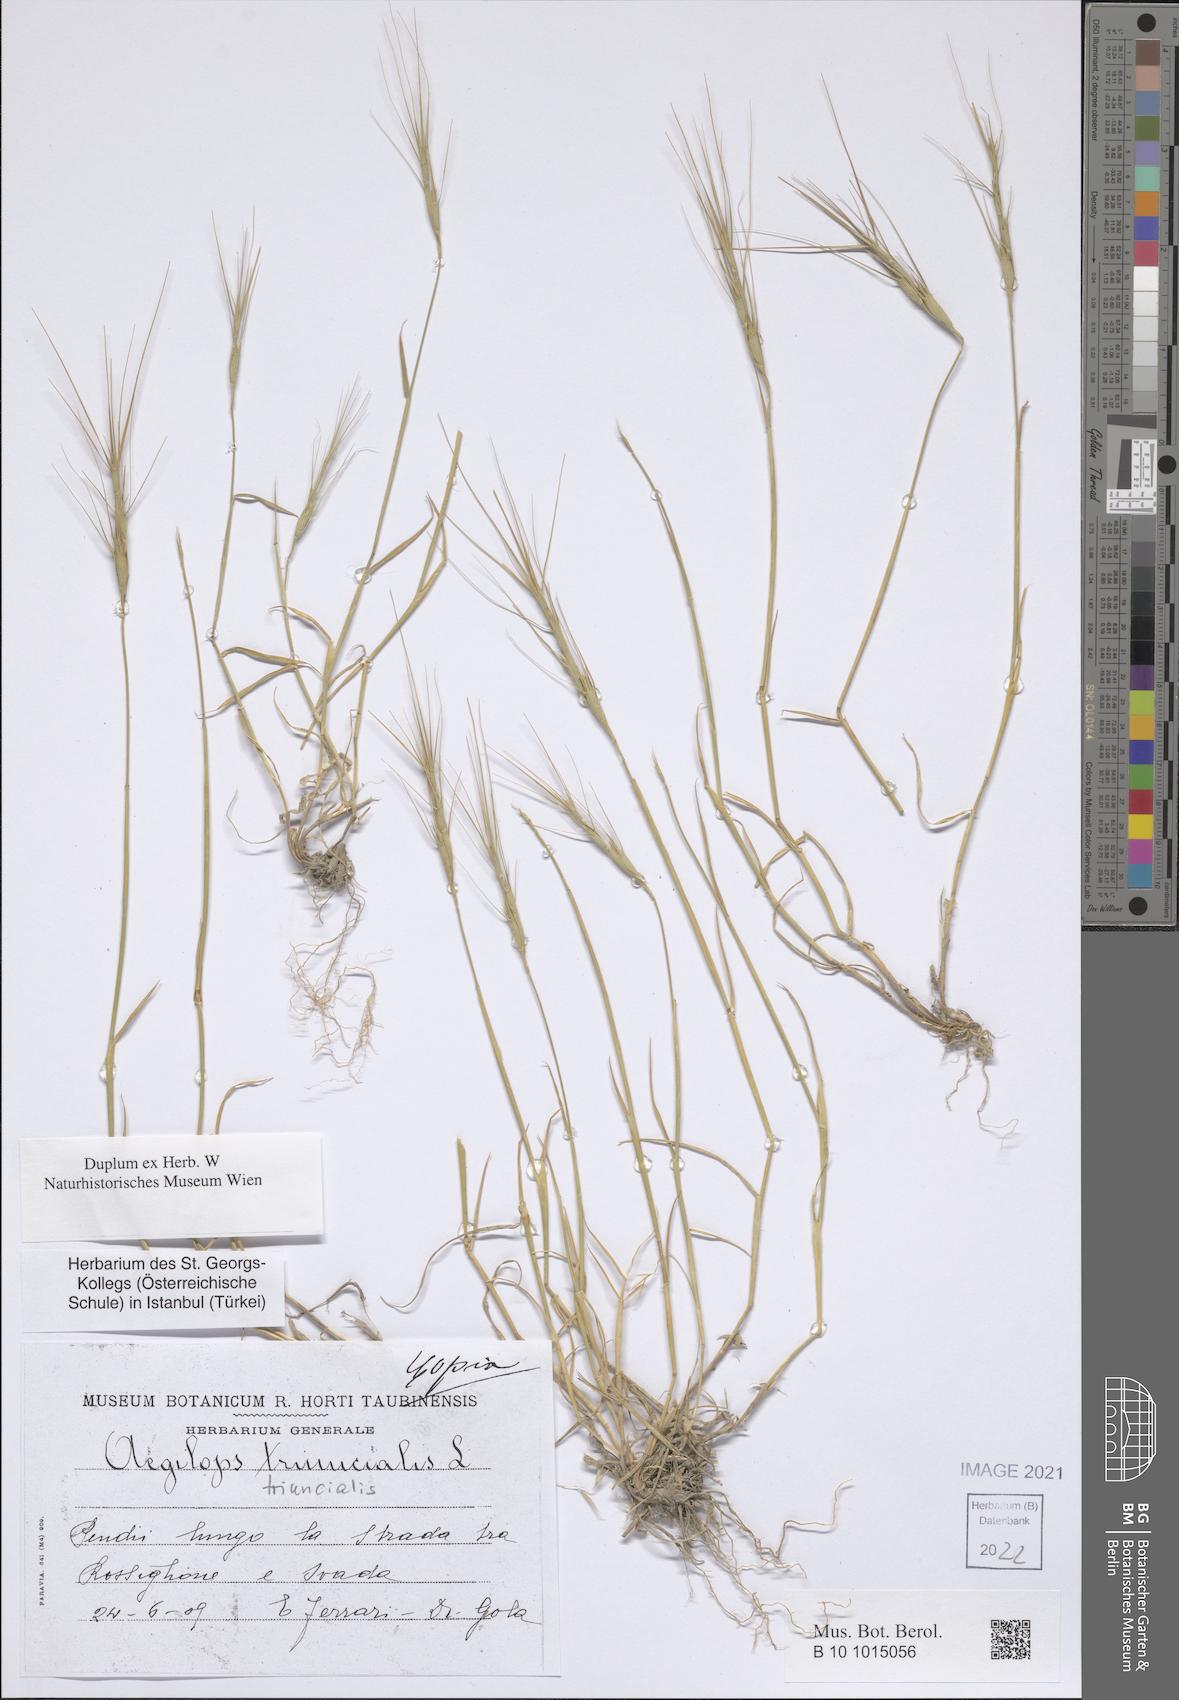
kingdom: Plantae
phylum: Tracheophyta
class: Liliopsida
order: Poales
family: Poaceae
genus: Aegilops
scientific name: Aegilops triuncialis
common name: Barb goat grass
